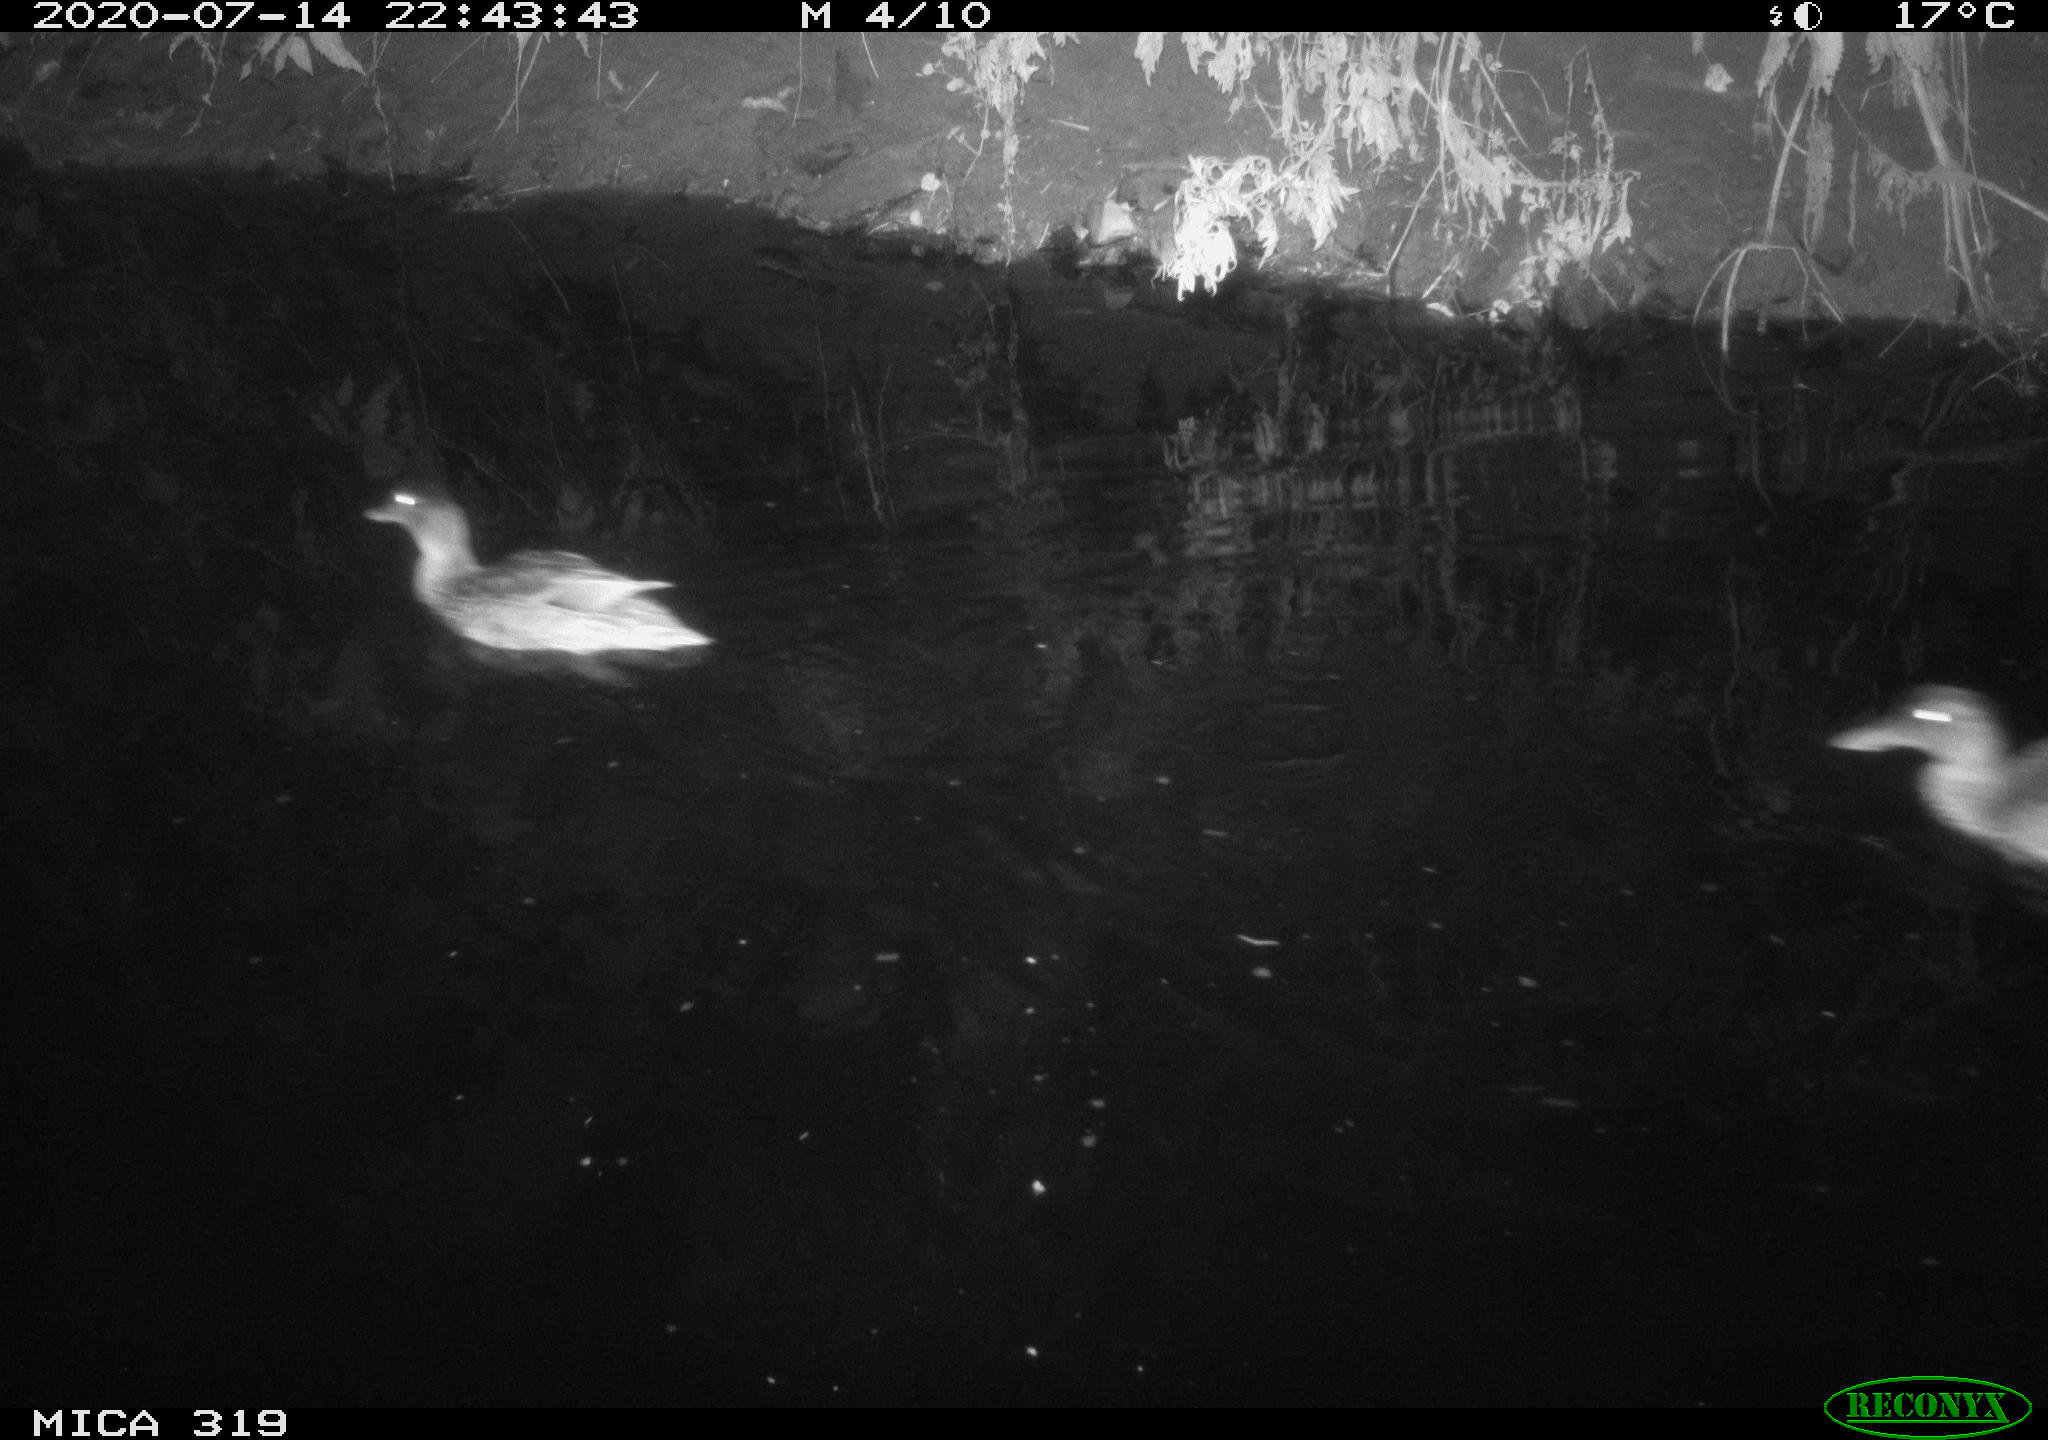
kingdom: Animalia
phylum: Chordata
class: Aves
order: Anseriformes
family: Anatidae
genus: Anas
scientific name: Anas platyrhynchos
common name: Mallard
